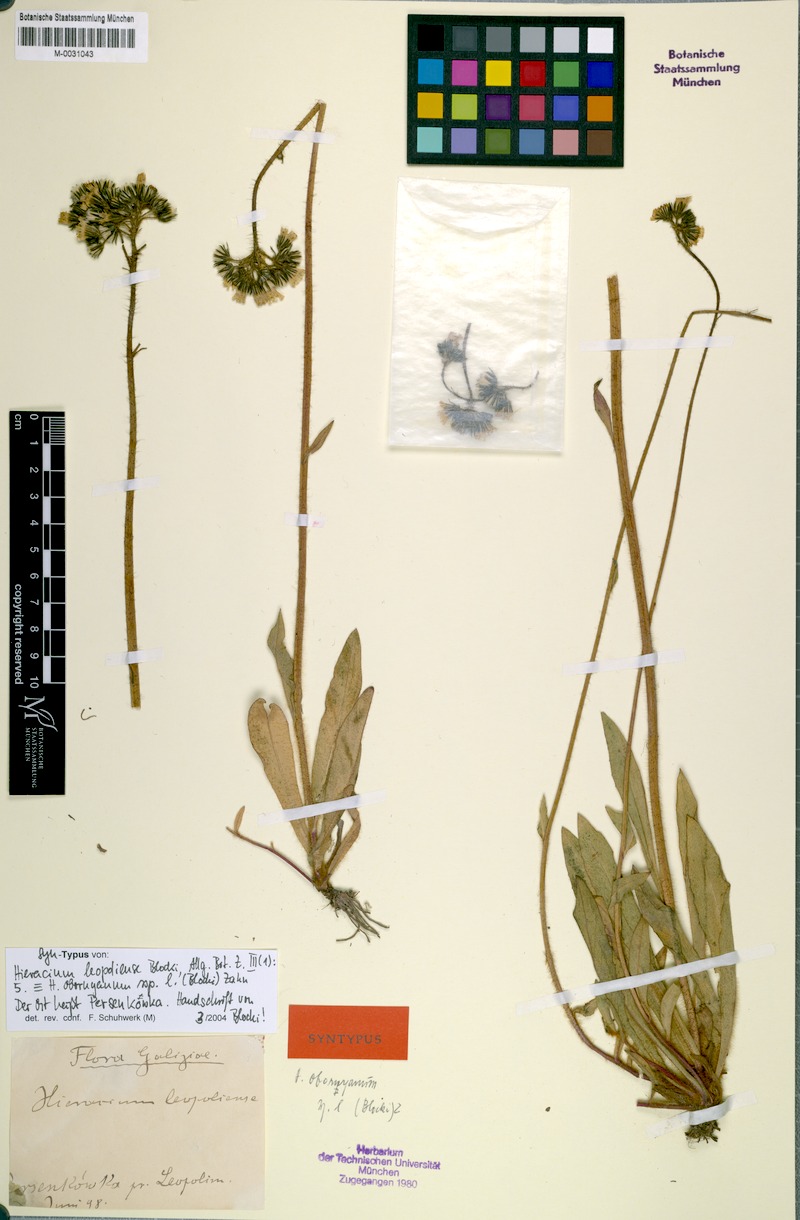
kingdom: Plantae
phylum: Tracheophyta
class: Magnoliopsida
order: Asterales
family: Asteraceae
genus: Pilosella
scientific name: Pilosella polymastix
